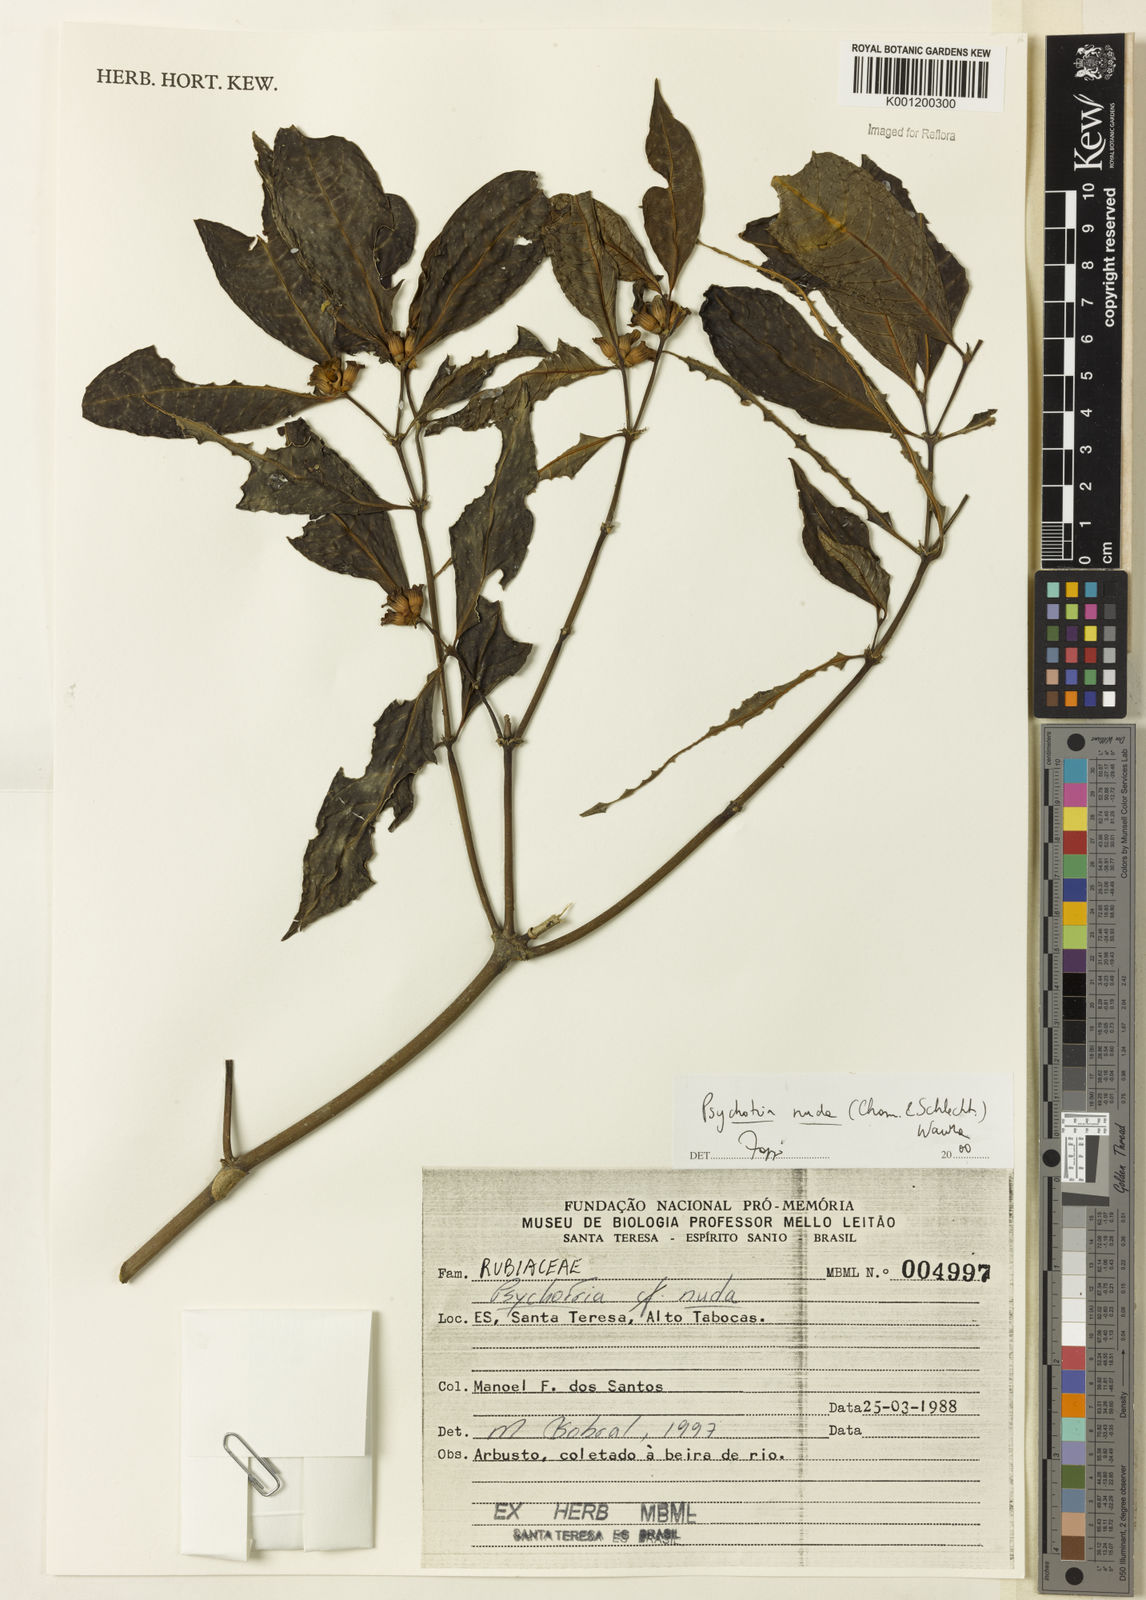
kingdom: Plantae
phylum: Tracheophyta
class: Magnoliopsida
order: Gentianales
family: Rubiaceae
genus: Psychotria
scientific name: Psychotria nuda
